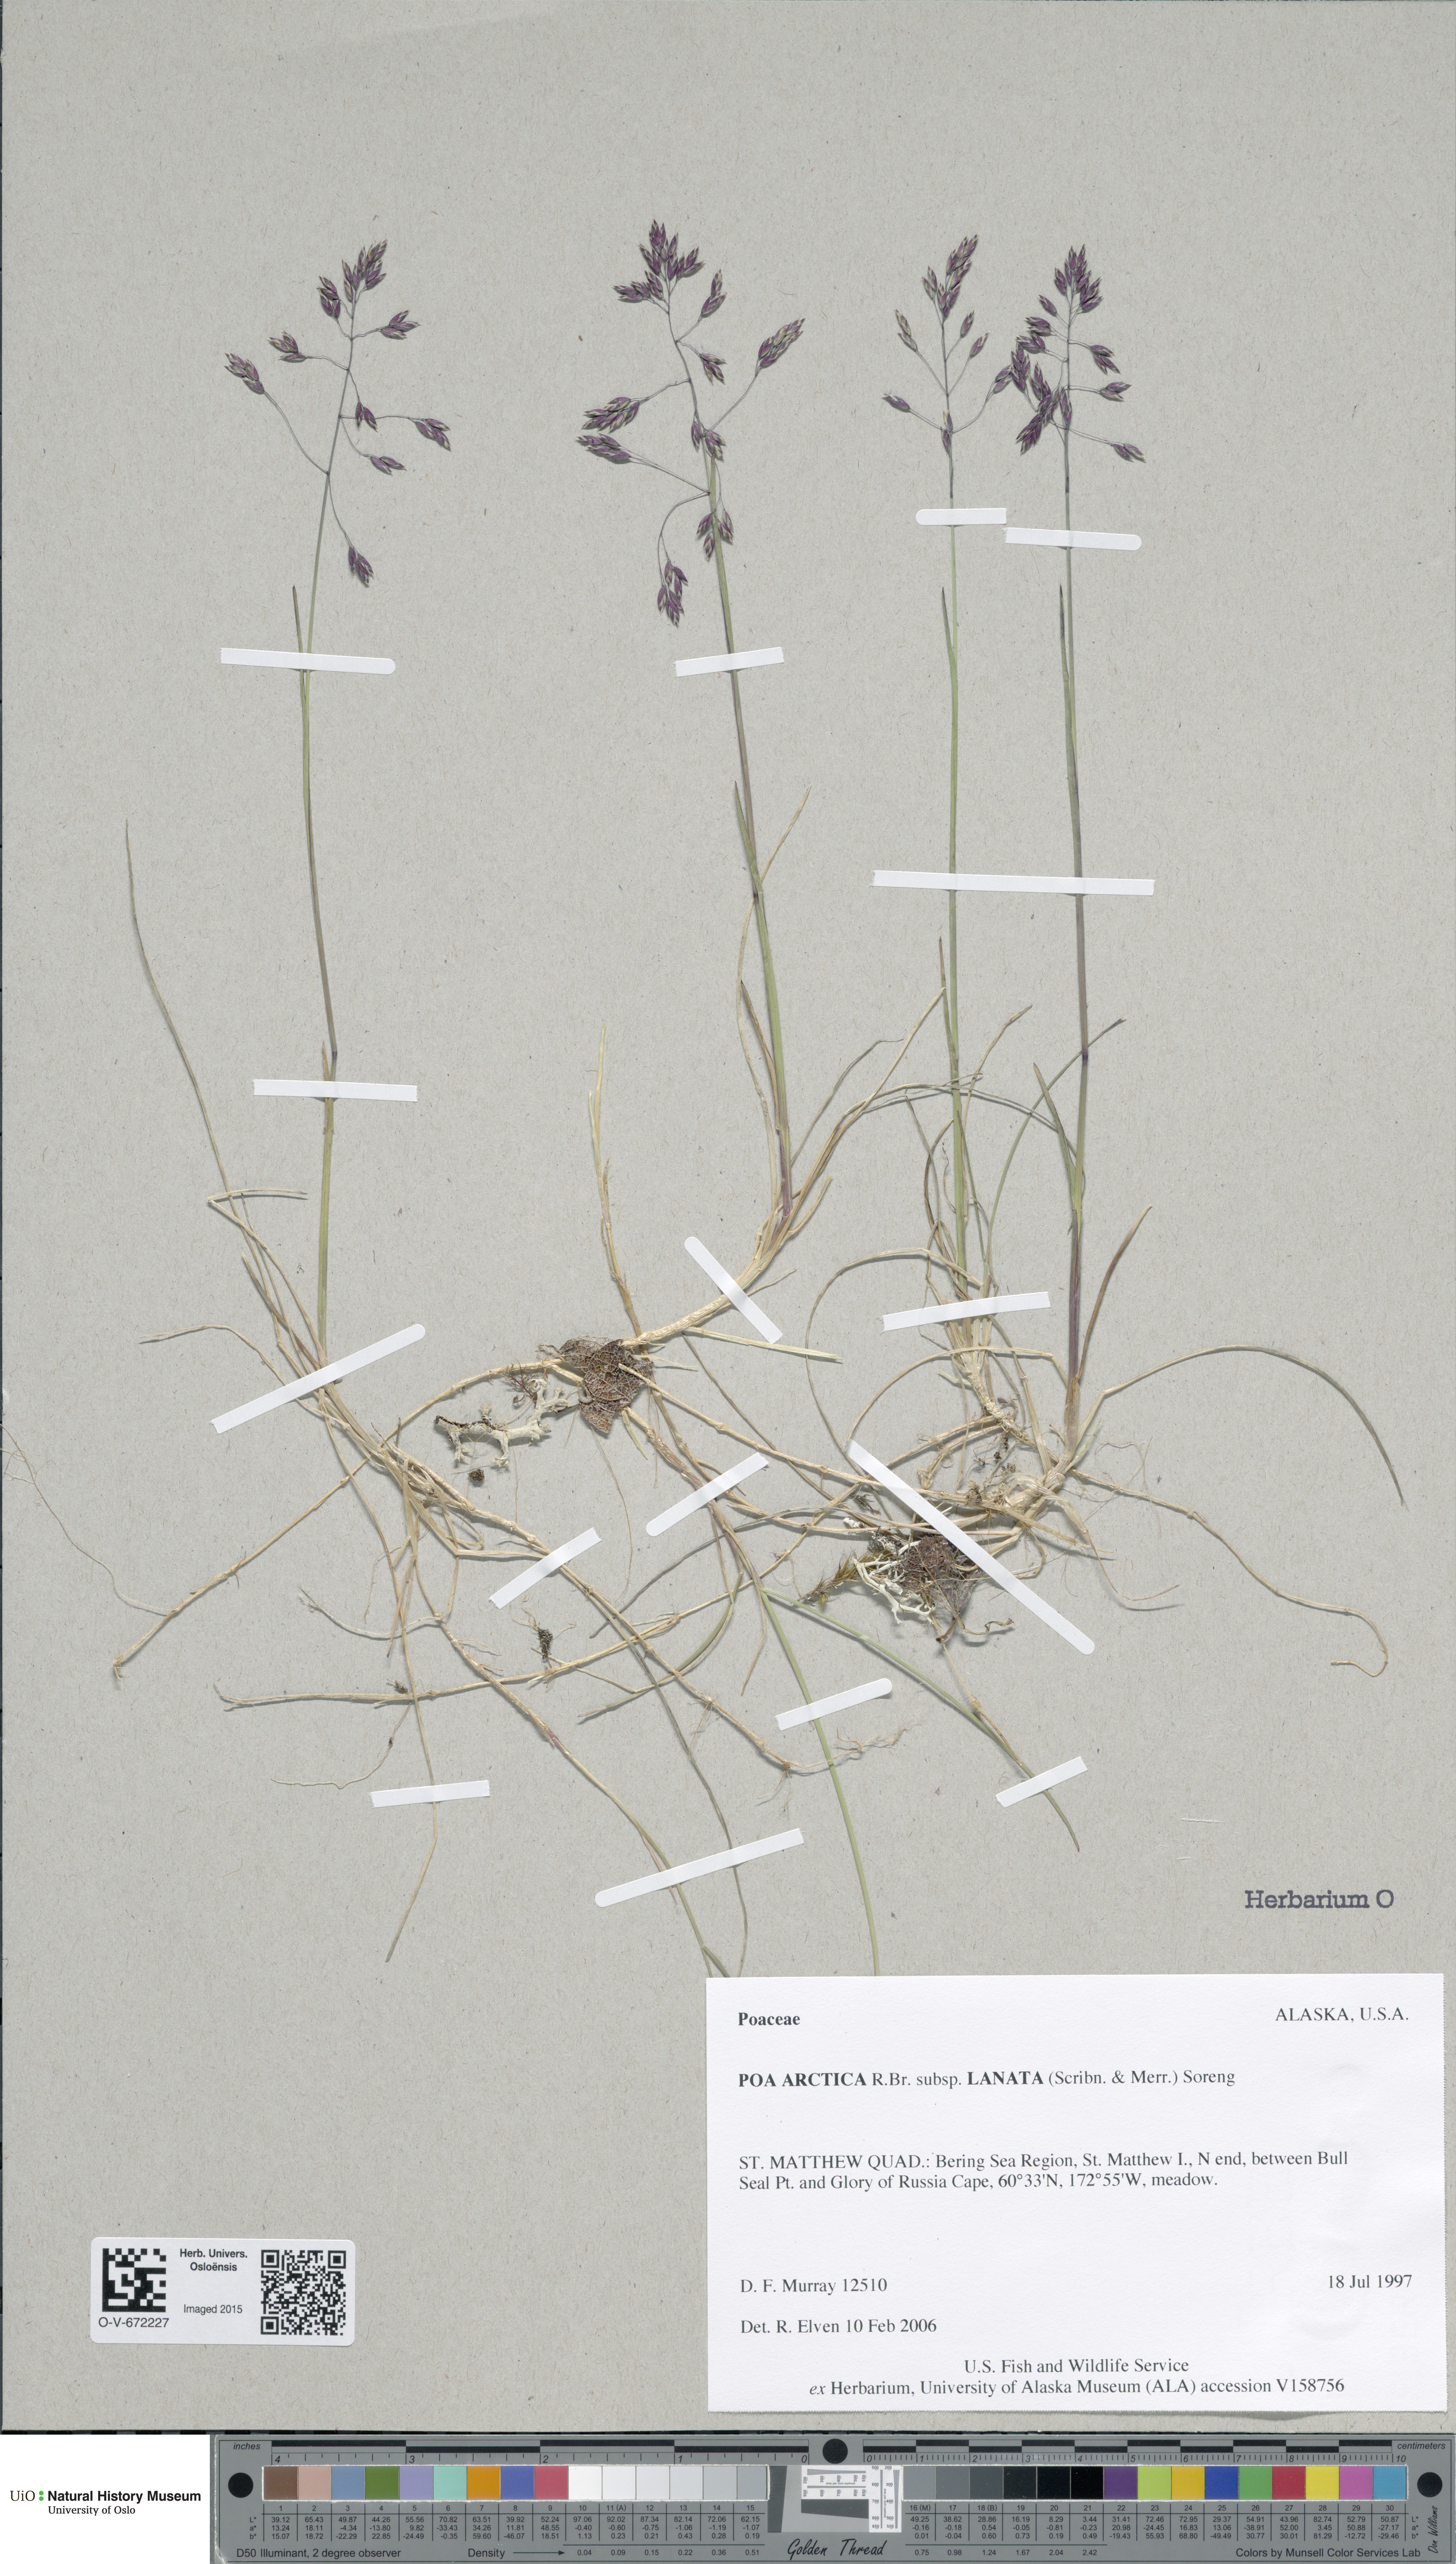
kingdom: Plantae
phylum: Tracheophyta
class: Liliopsida
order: Poales
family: Poaceae
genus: Poa
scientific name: Poa arctica
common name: Arctic bluegrass
